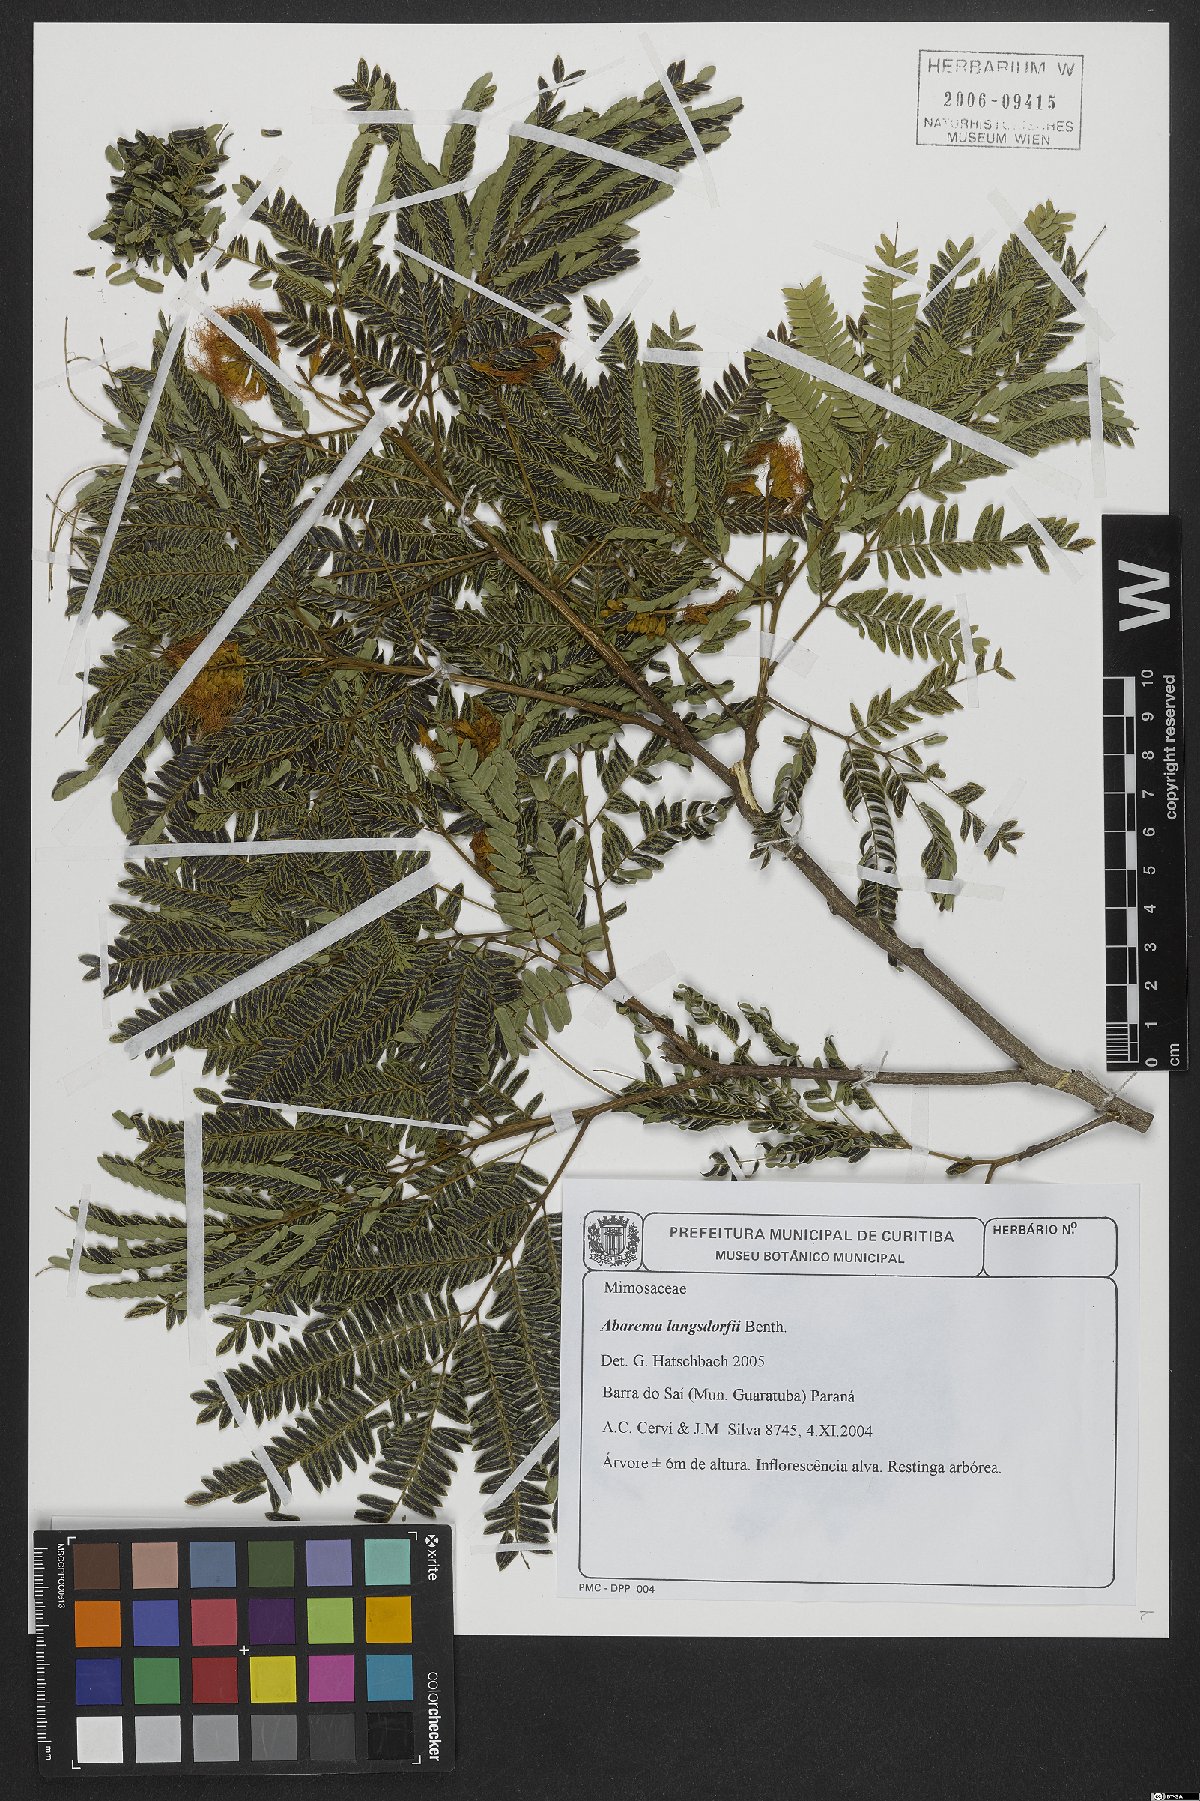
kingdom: Plantae
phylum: Tracheophyta
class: Magnoliopsida
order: Fabales
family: Fabaceae
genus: Jupunba
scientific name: Jupunba langsdorffii
